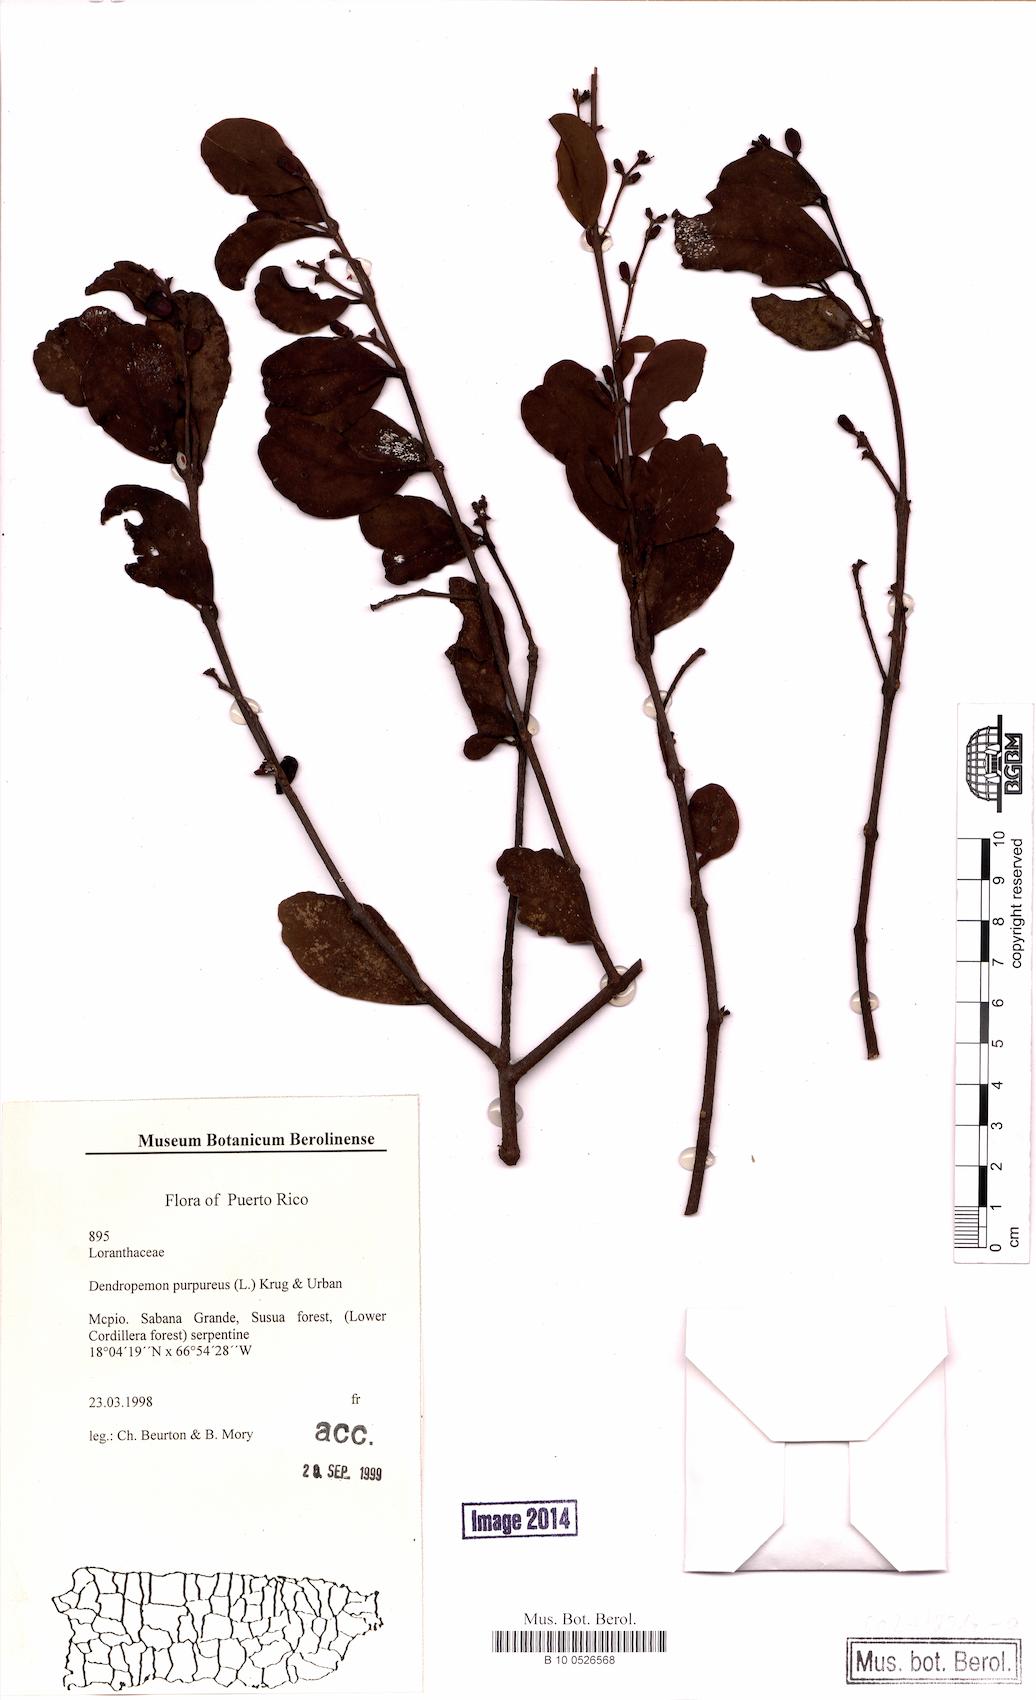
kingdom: Plantae
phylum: Tracheophyta
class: Magnoliopsida
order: Santalales
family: Loranthaceae
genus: Dendropemon
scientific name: Dendropemon purpureus
